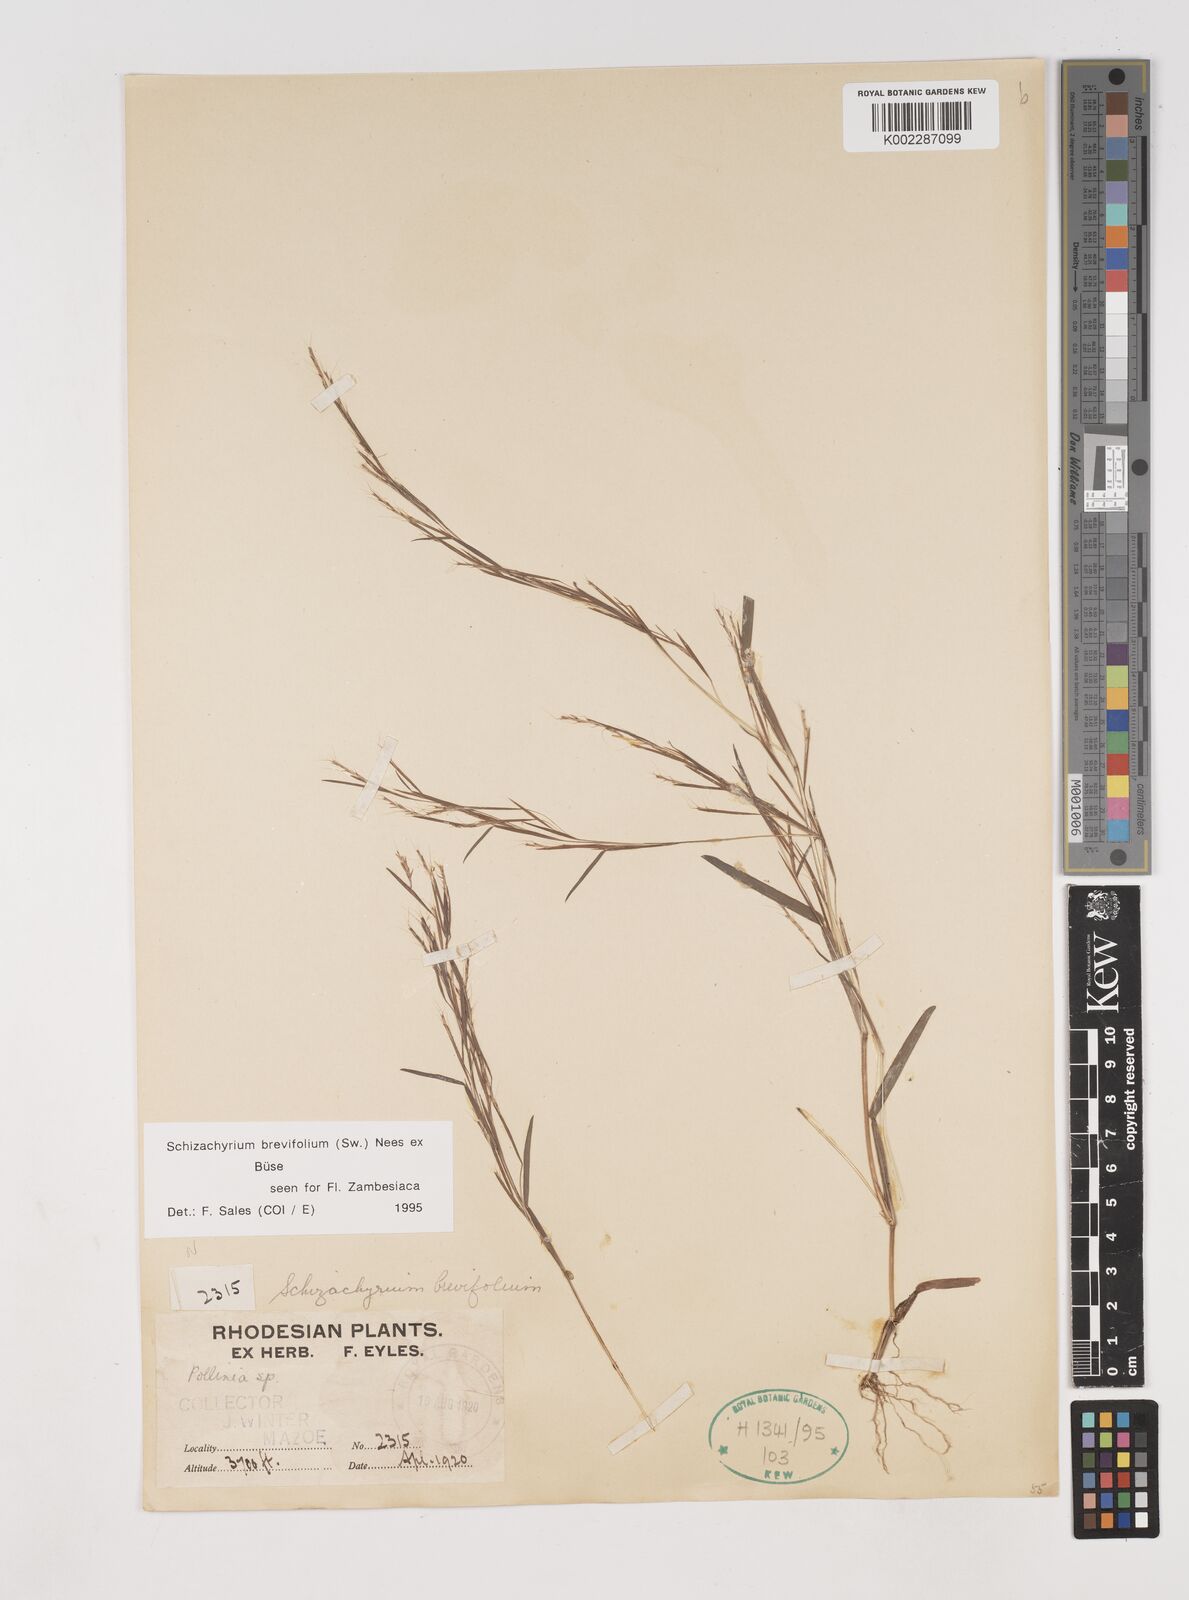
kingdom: Plantae
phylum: Tracheophyta
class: Liliopsida
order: Poales
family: Poaceae
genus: Schizachyrium
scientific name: Schizachyrium brevifolium
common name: Serillo dulce
